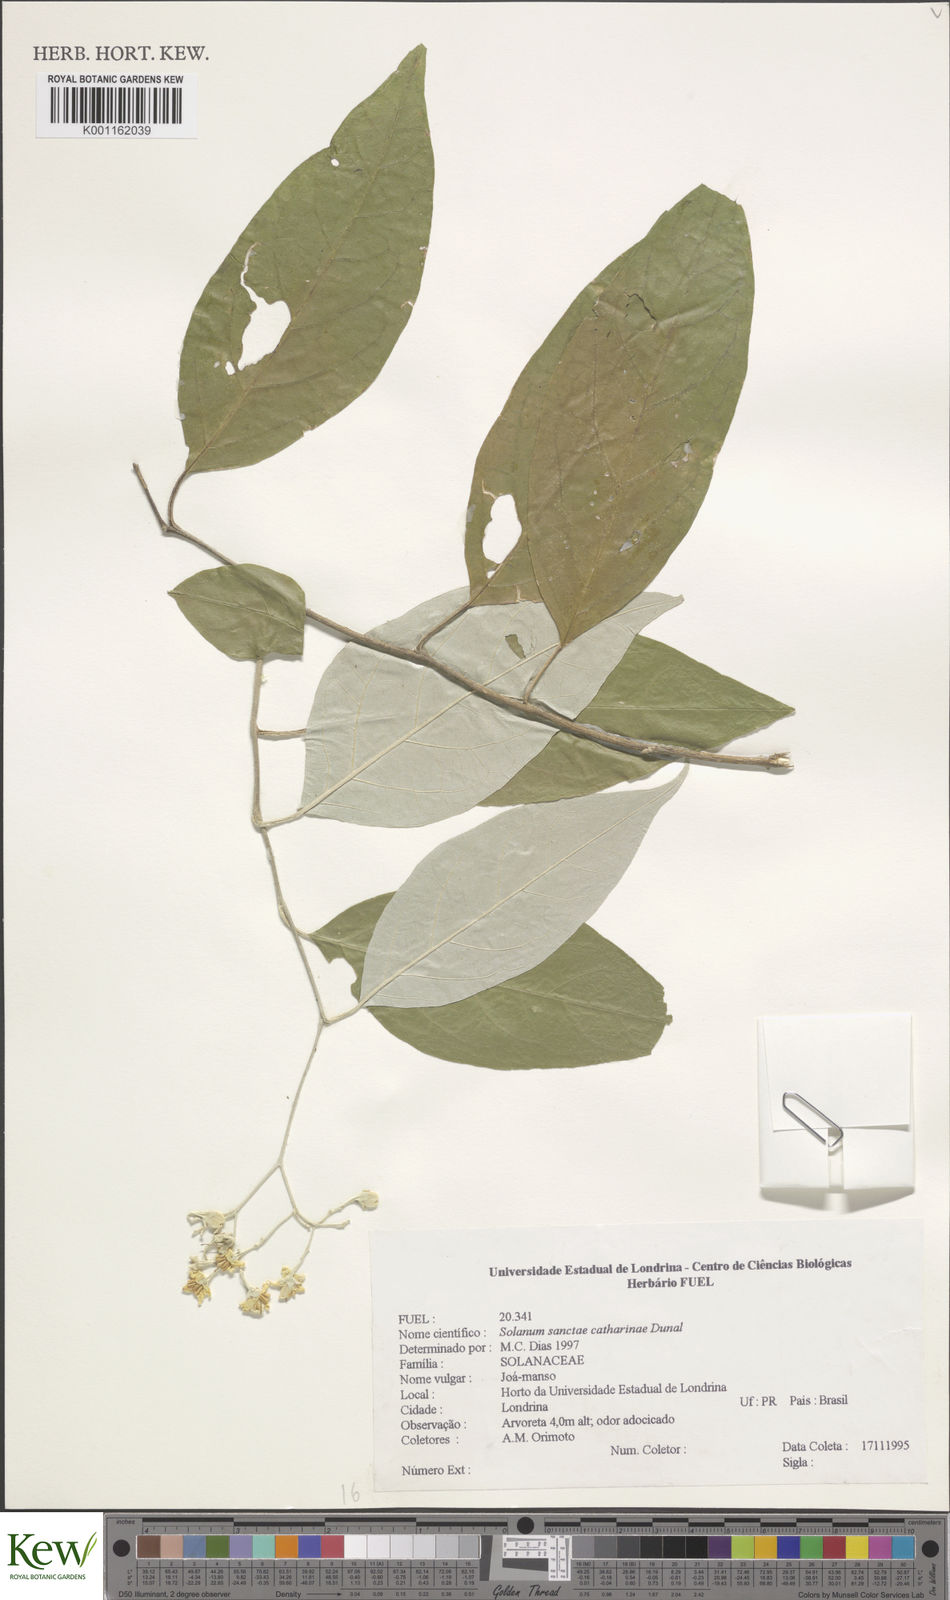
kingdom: Plantae
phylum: Tracheophyta
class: Magnoliopsida
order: Solanales
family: Solanaceae
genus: Solanum
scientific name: Solanum sanctae-catharinae
